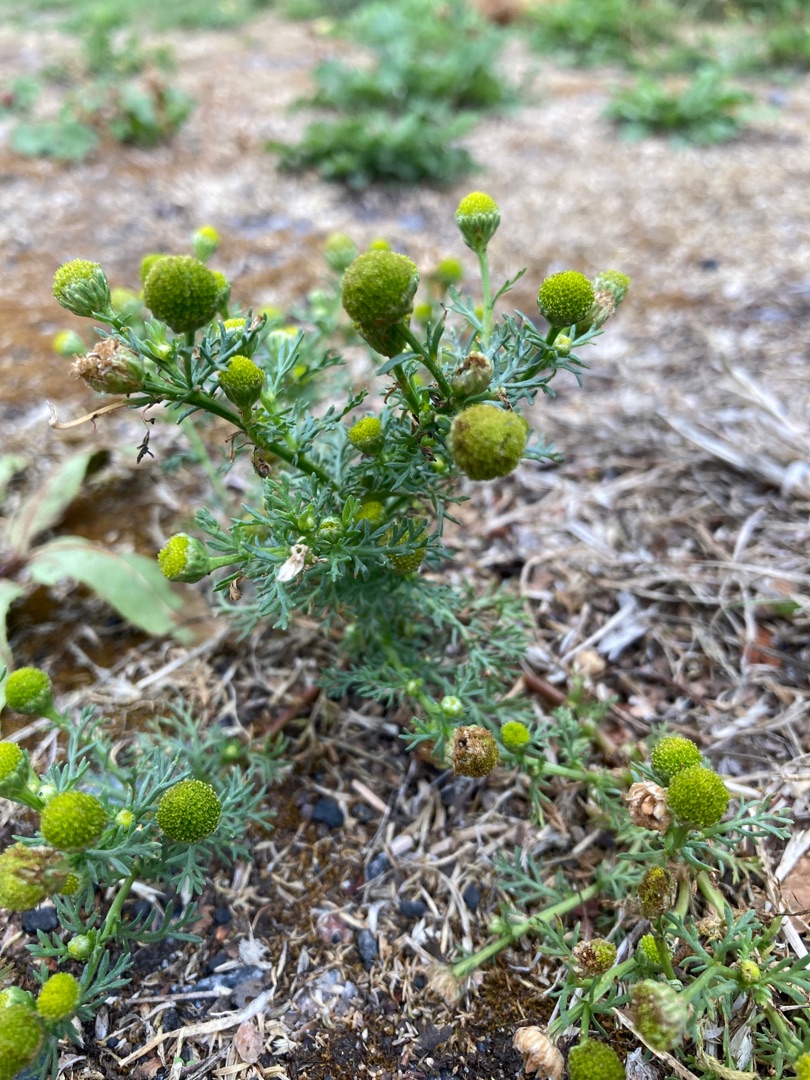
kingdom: Plantae
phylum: Tracheophyta
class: Magnoliopsida
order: Asterales
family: Asteraceae
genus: Matricaria
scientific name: Matricaria discoidea
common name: Skive-kamille
